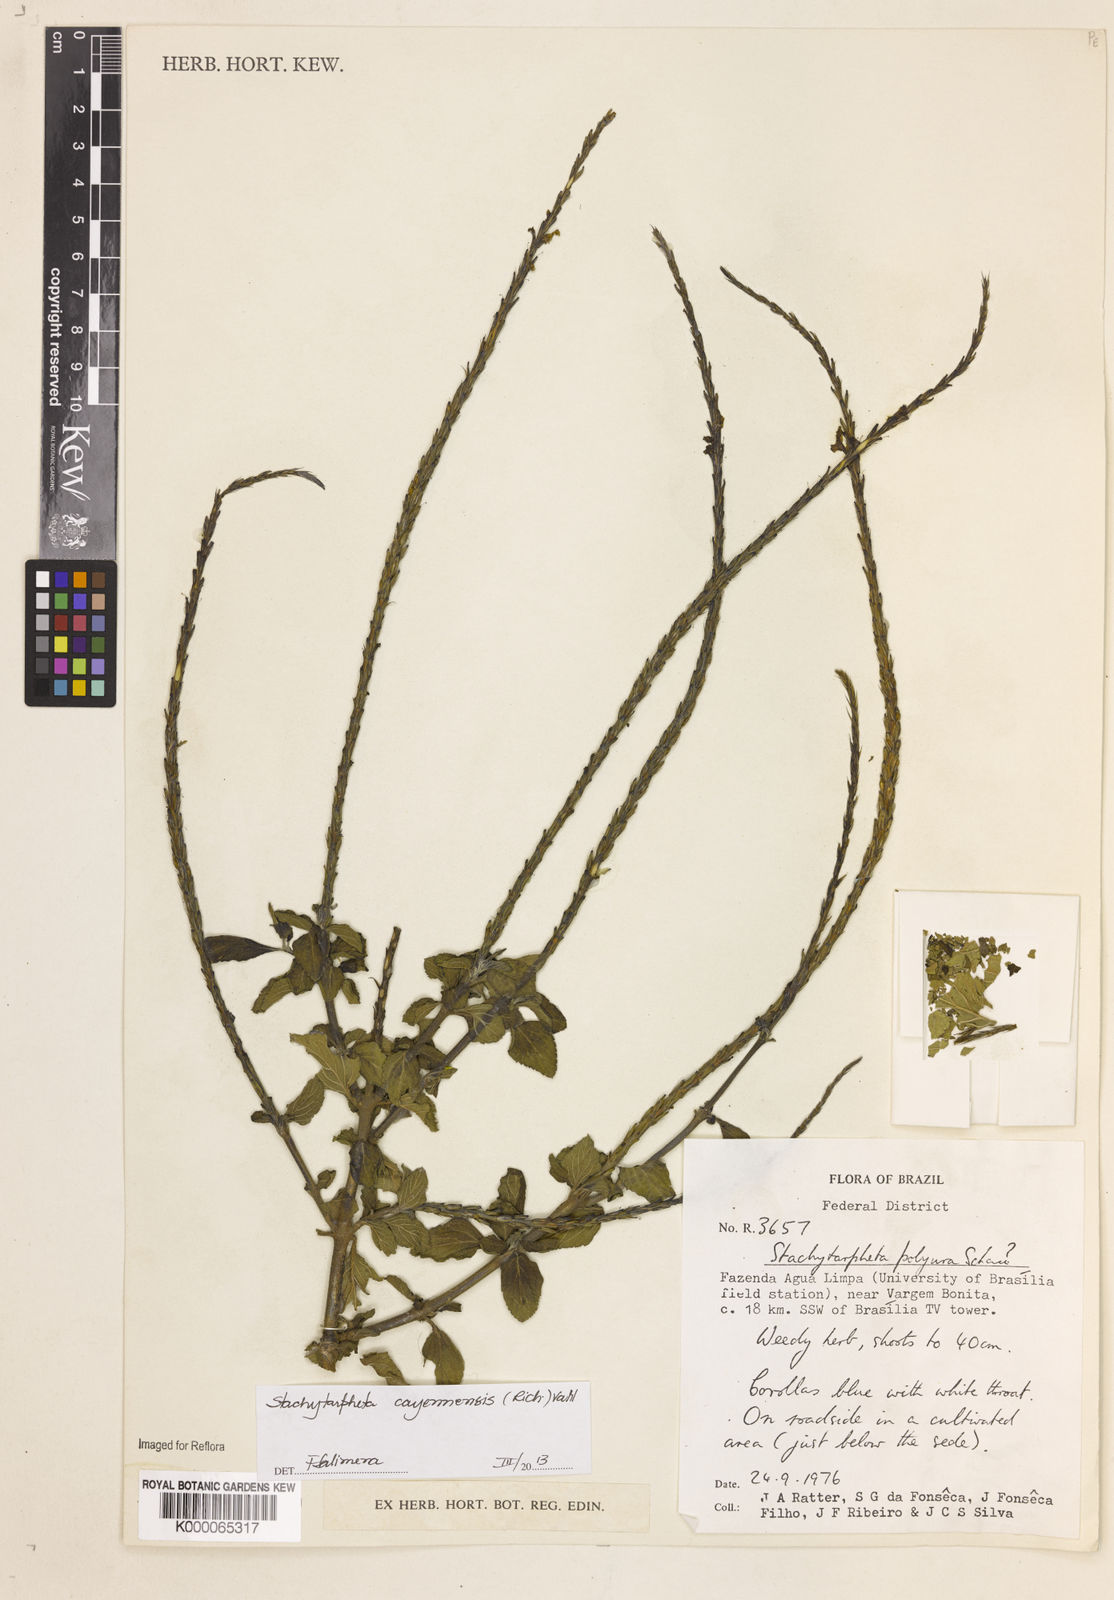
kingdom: Plantae
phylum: Tracheophyta
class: Magnoliopsida
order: Lamiales
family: Verbenaceae
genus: Stachytarpheta
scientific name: Stachytarpheta polyura
